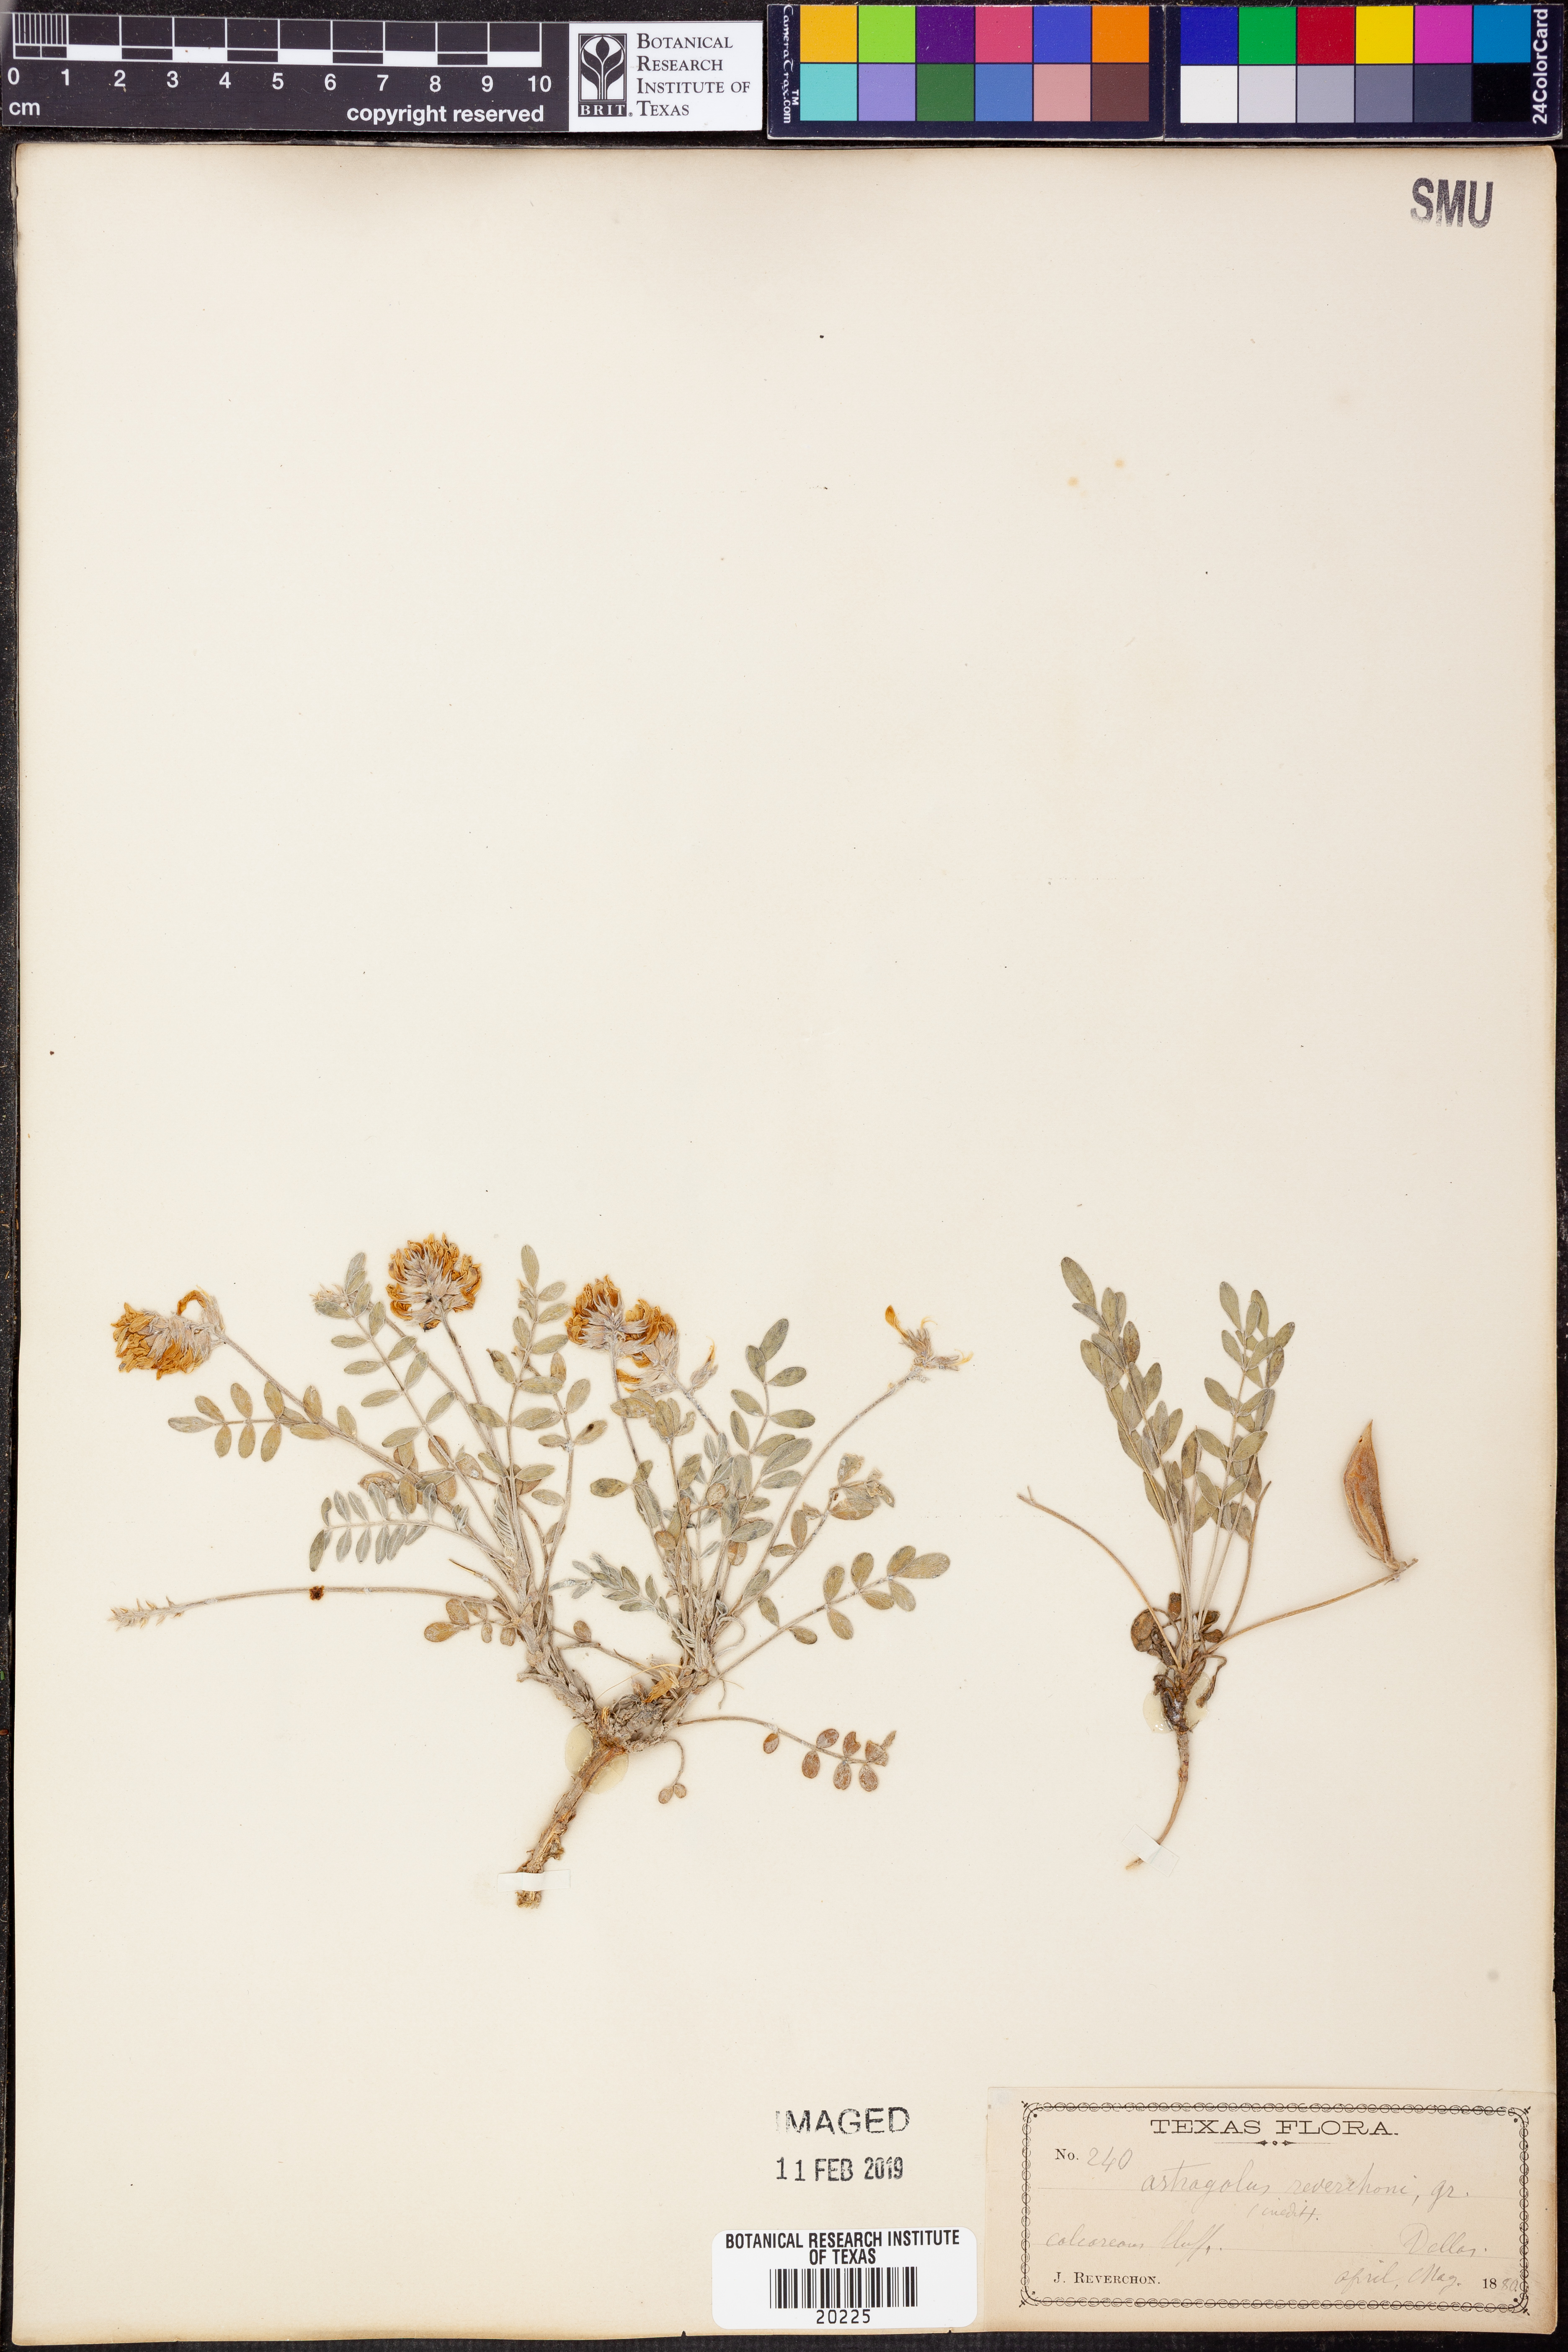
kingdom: Plantae
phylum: Tracheophyta
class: Magnoliopsida
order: Fabales
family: Fabaceae
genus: Astragalus
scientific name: Astragalus lotiflorus
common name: Lotus milk-vetch
